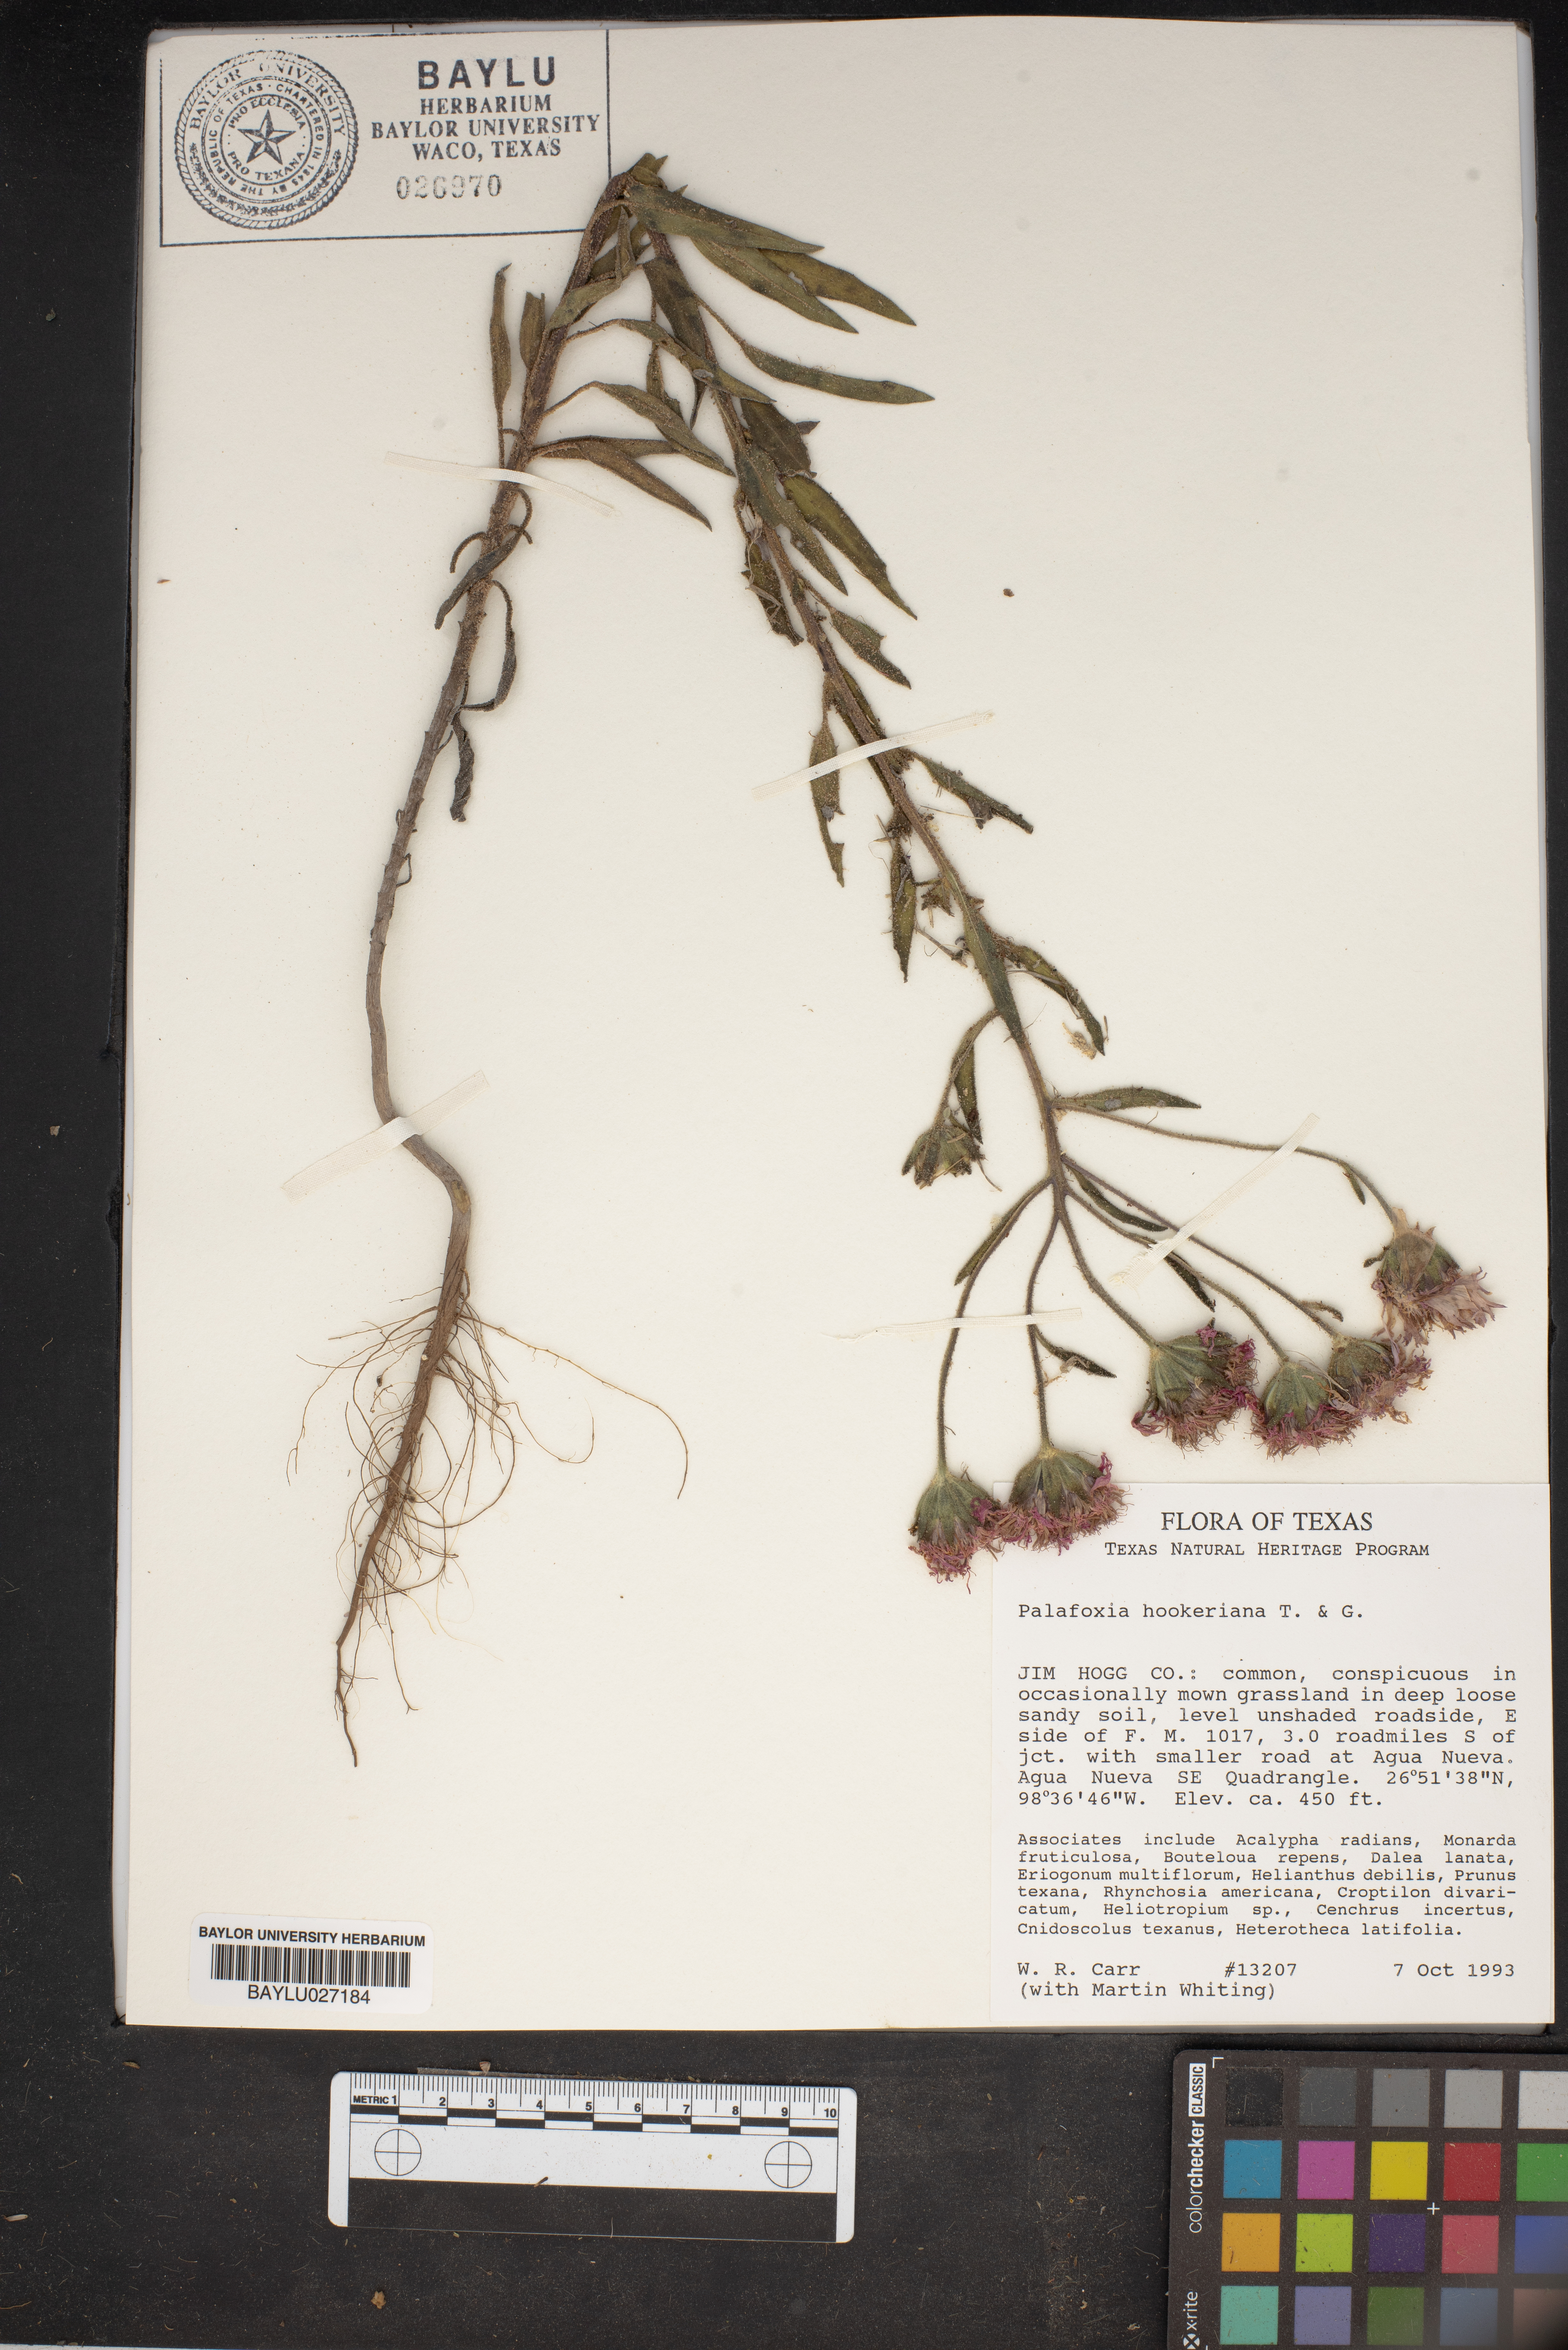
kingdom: Plantae
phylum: Tracheophyta
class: Magnoliopsida
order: Asterales
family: Asteraceae
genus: Palafoxia
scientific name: Palafoxia hookeriana
